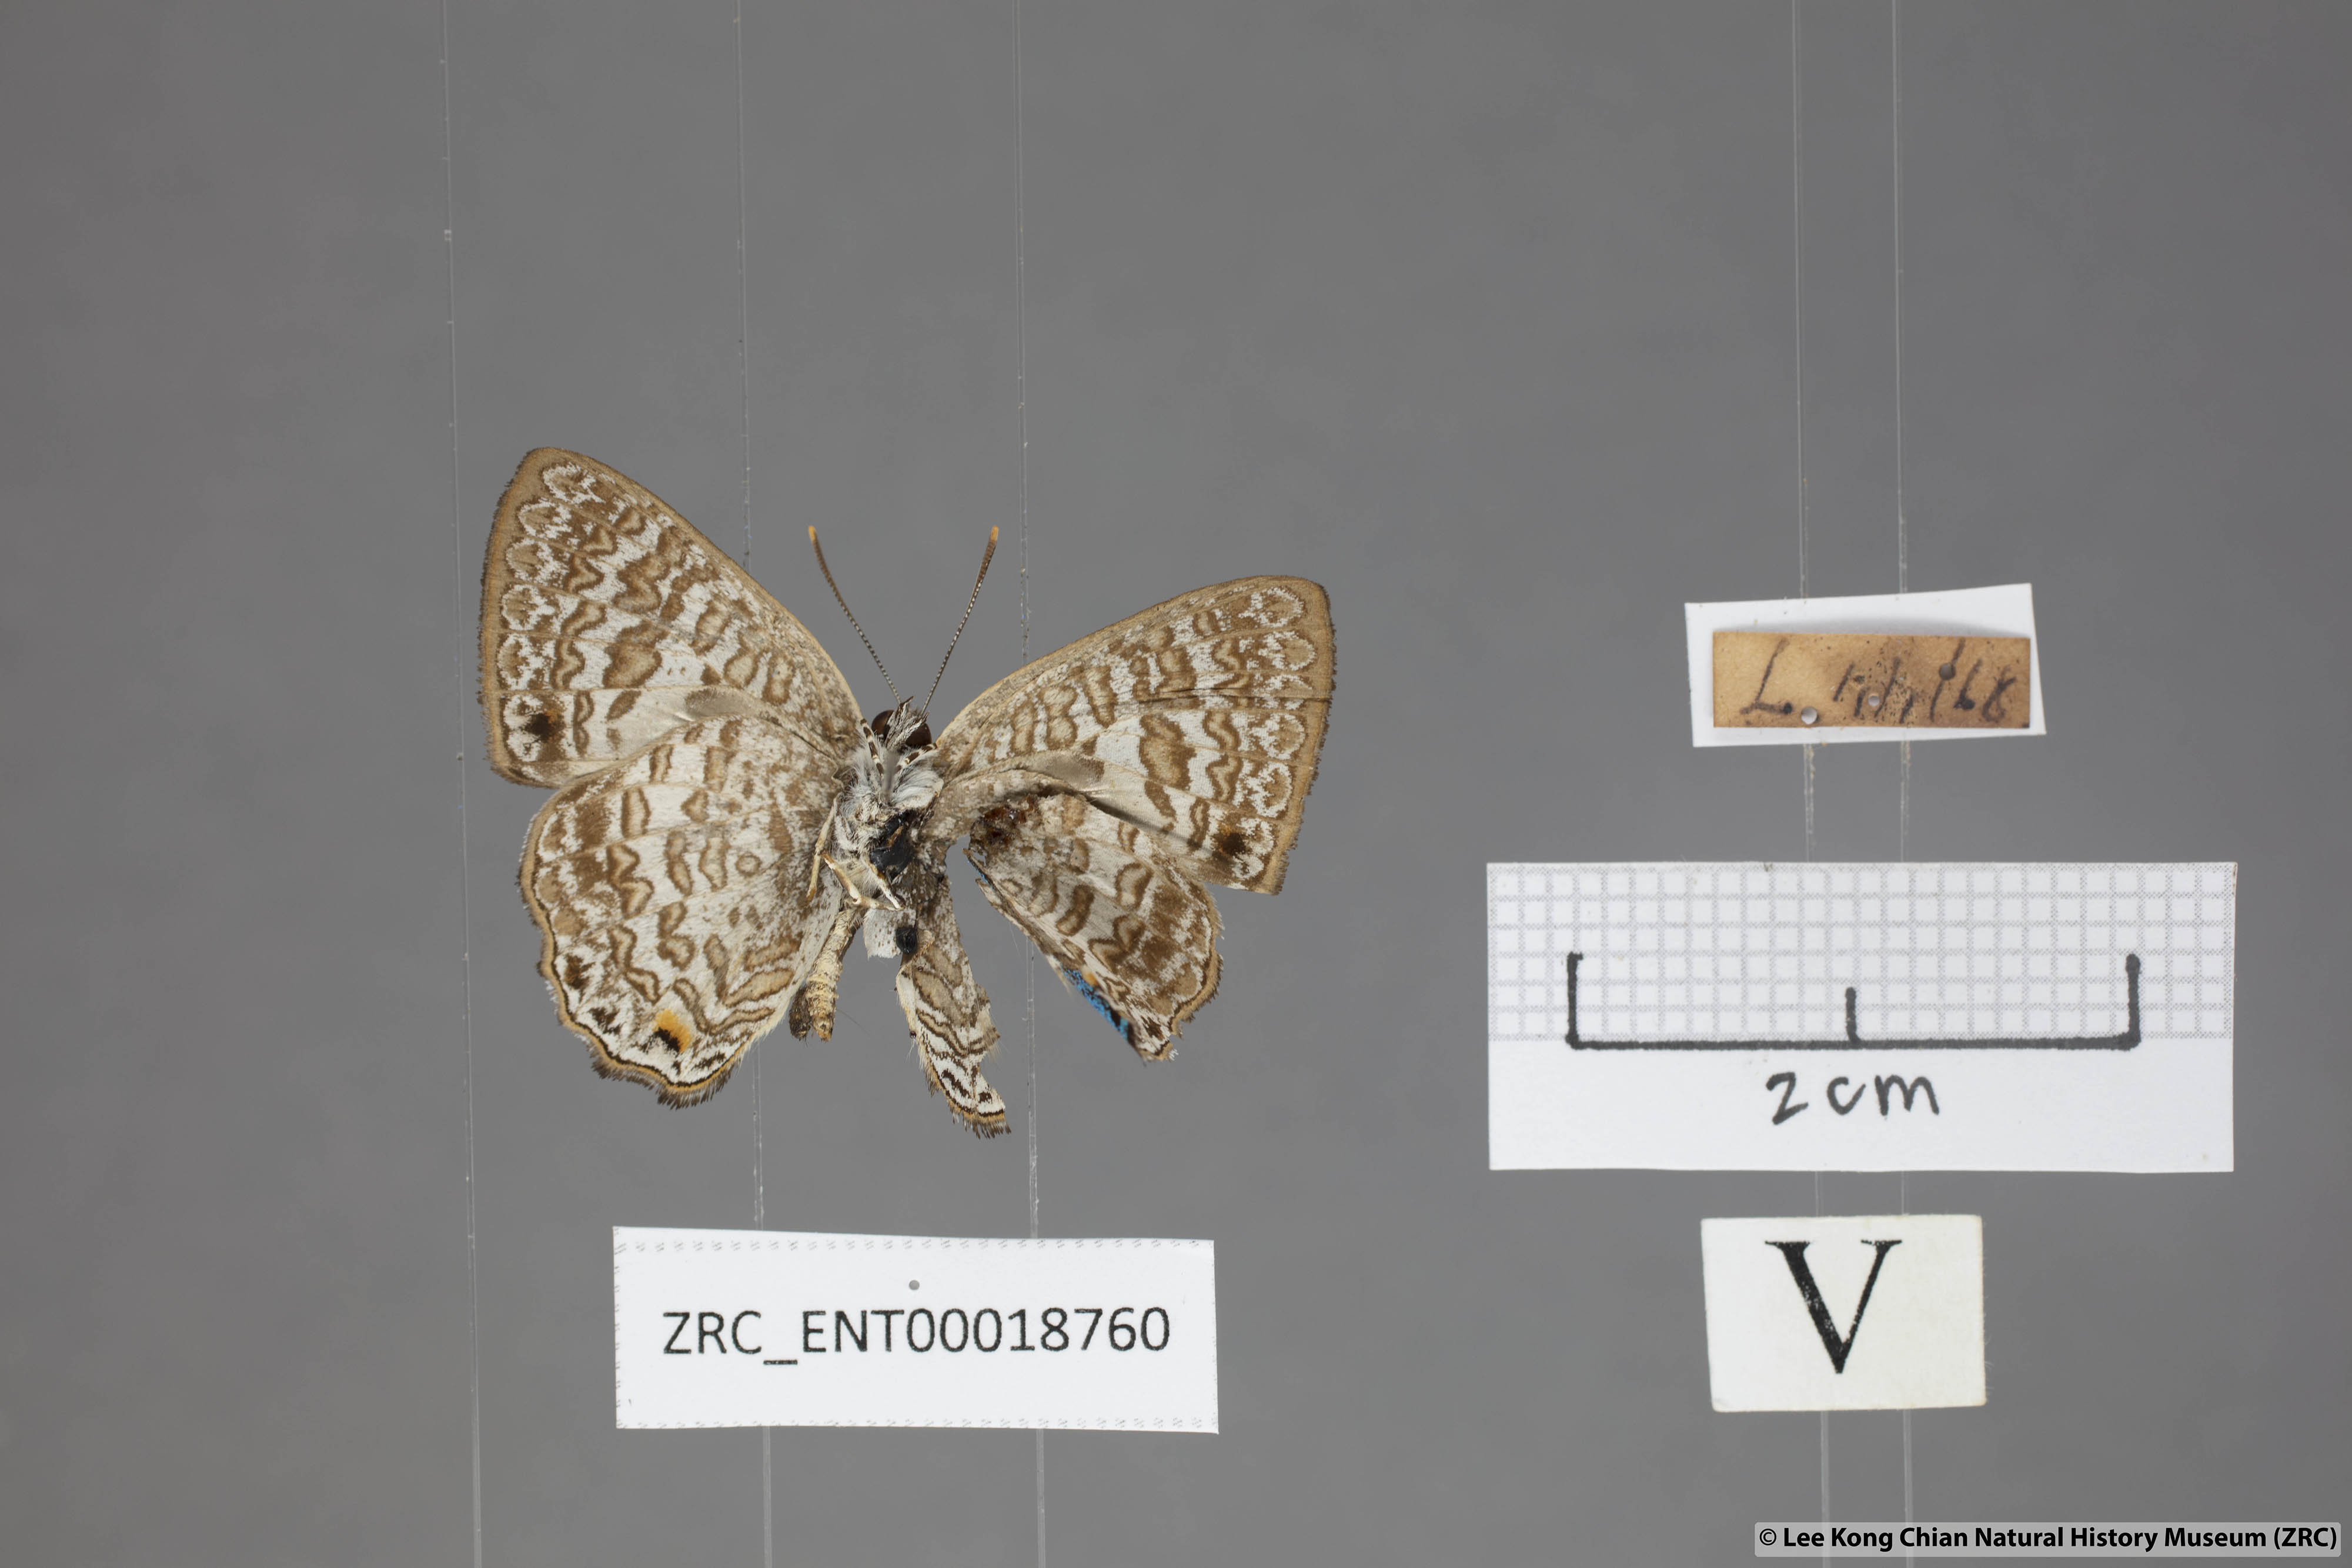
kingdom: Animalia
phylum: Arthropoda
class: Insecta
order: Lepidoptera
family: Lycaenidae
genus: Poritia
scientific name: Poritia erycinoides
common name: Blue gem
